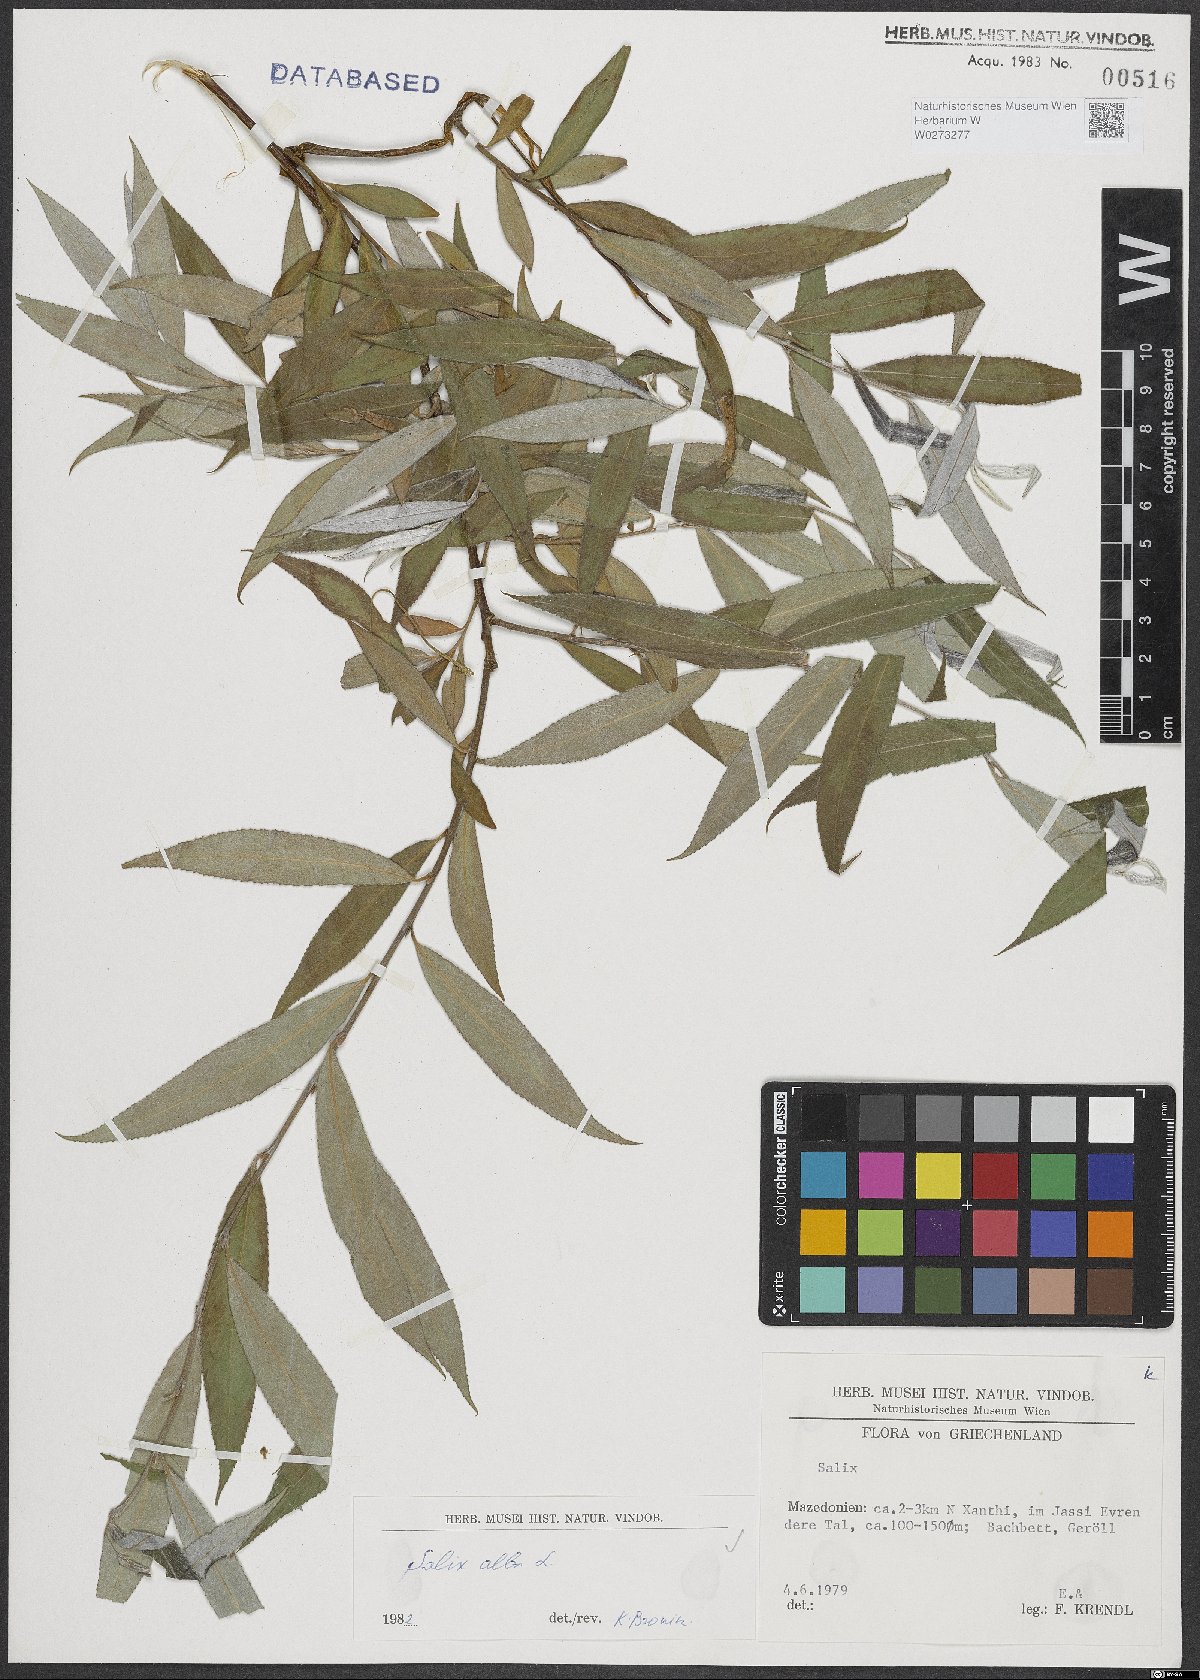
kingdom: Plantae
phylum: Tracheophyta
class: Magnoliopsida
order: Malpighiales
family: Salicaceae
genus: Salix
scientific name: Salix alba
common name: White willow
